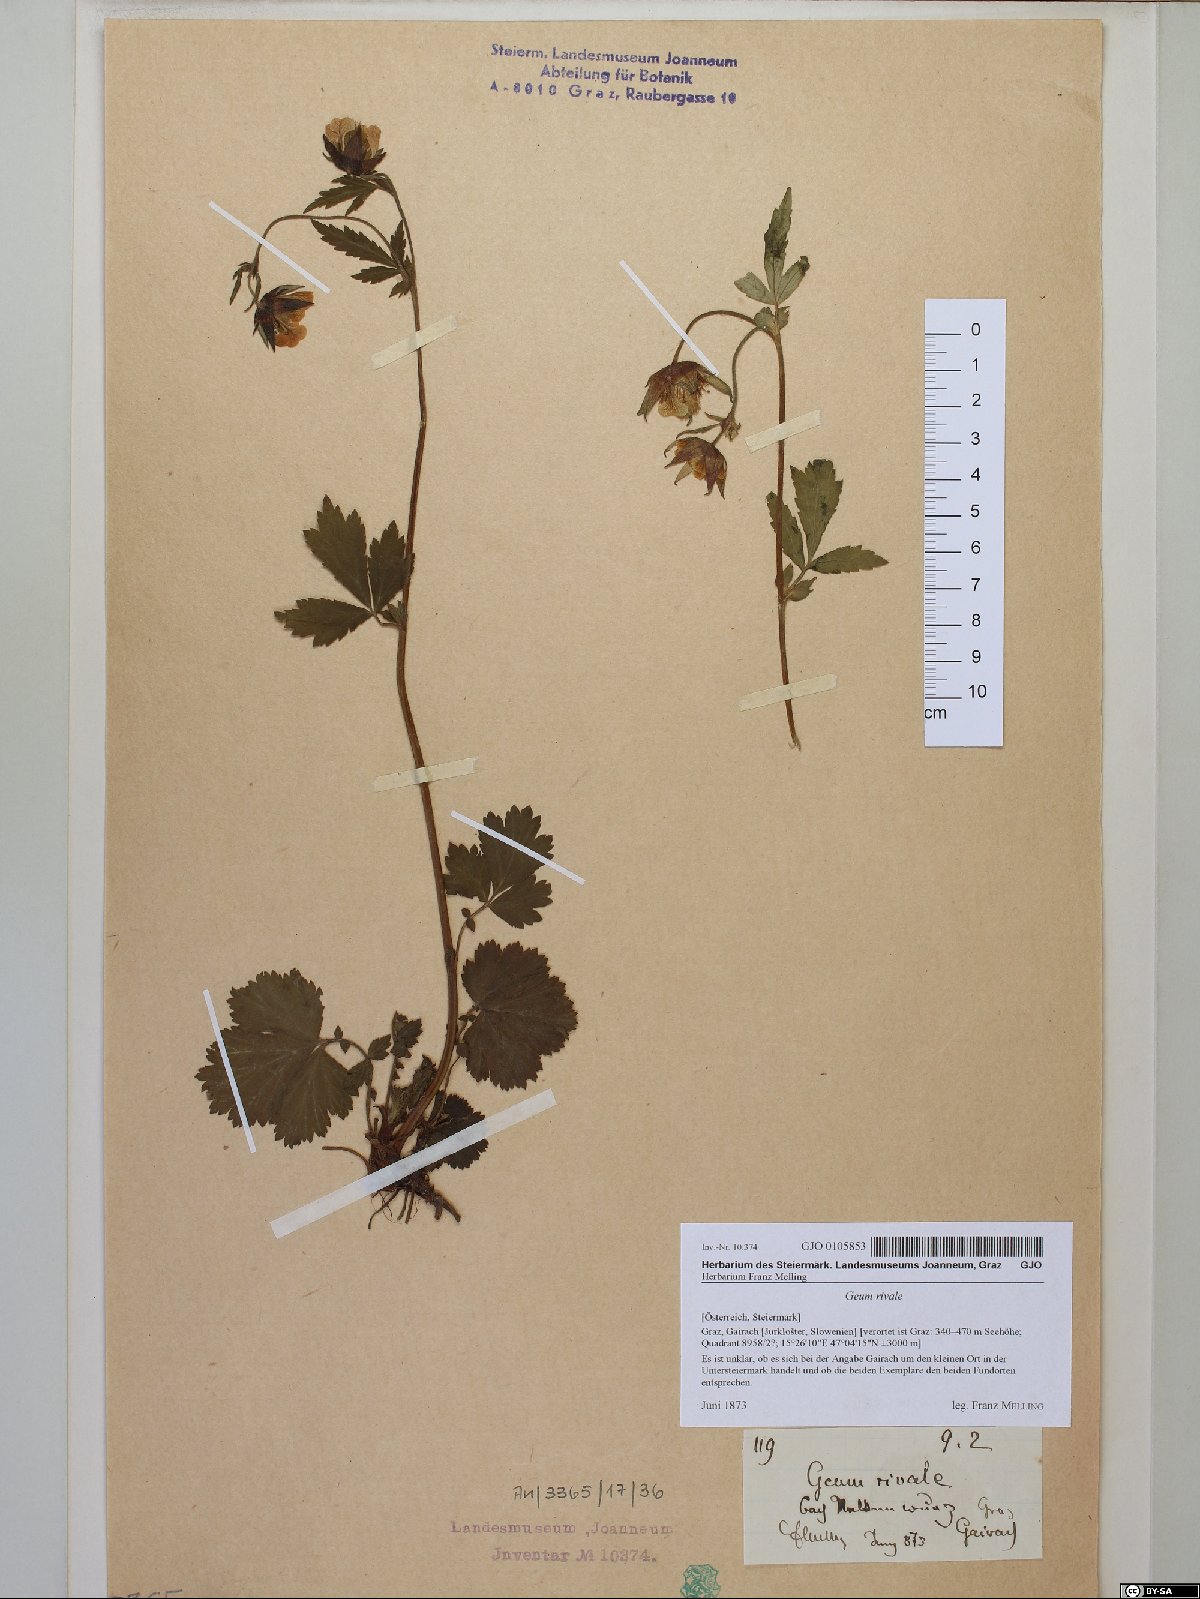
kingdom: Plantae
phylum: Tracheophyta
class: Magnoliopsida
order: Rosales
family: Rosaceae
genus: Geum
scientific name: Geum rivale
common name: Water avens
